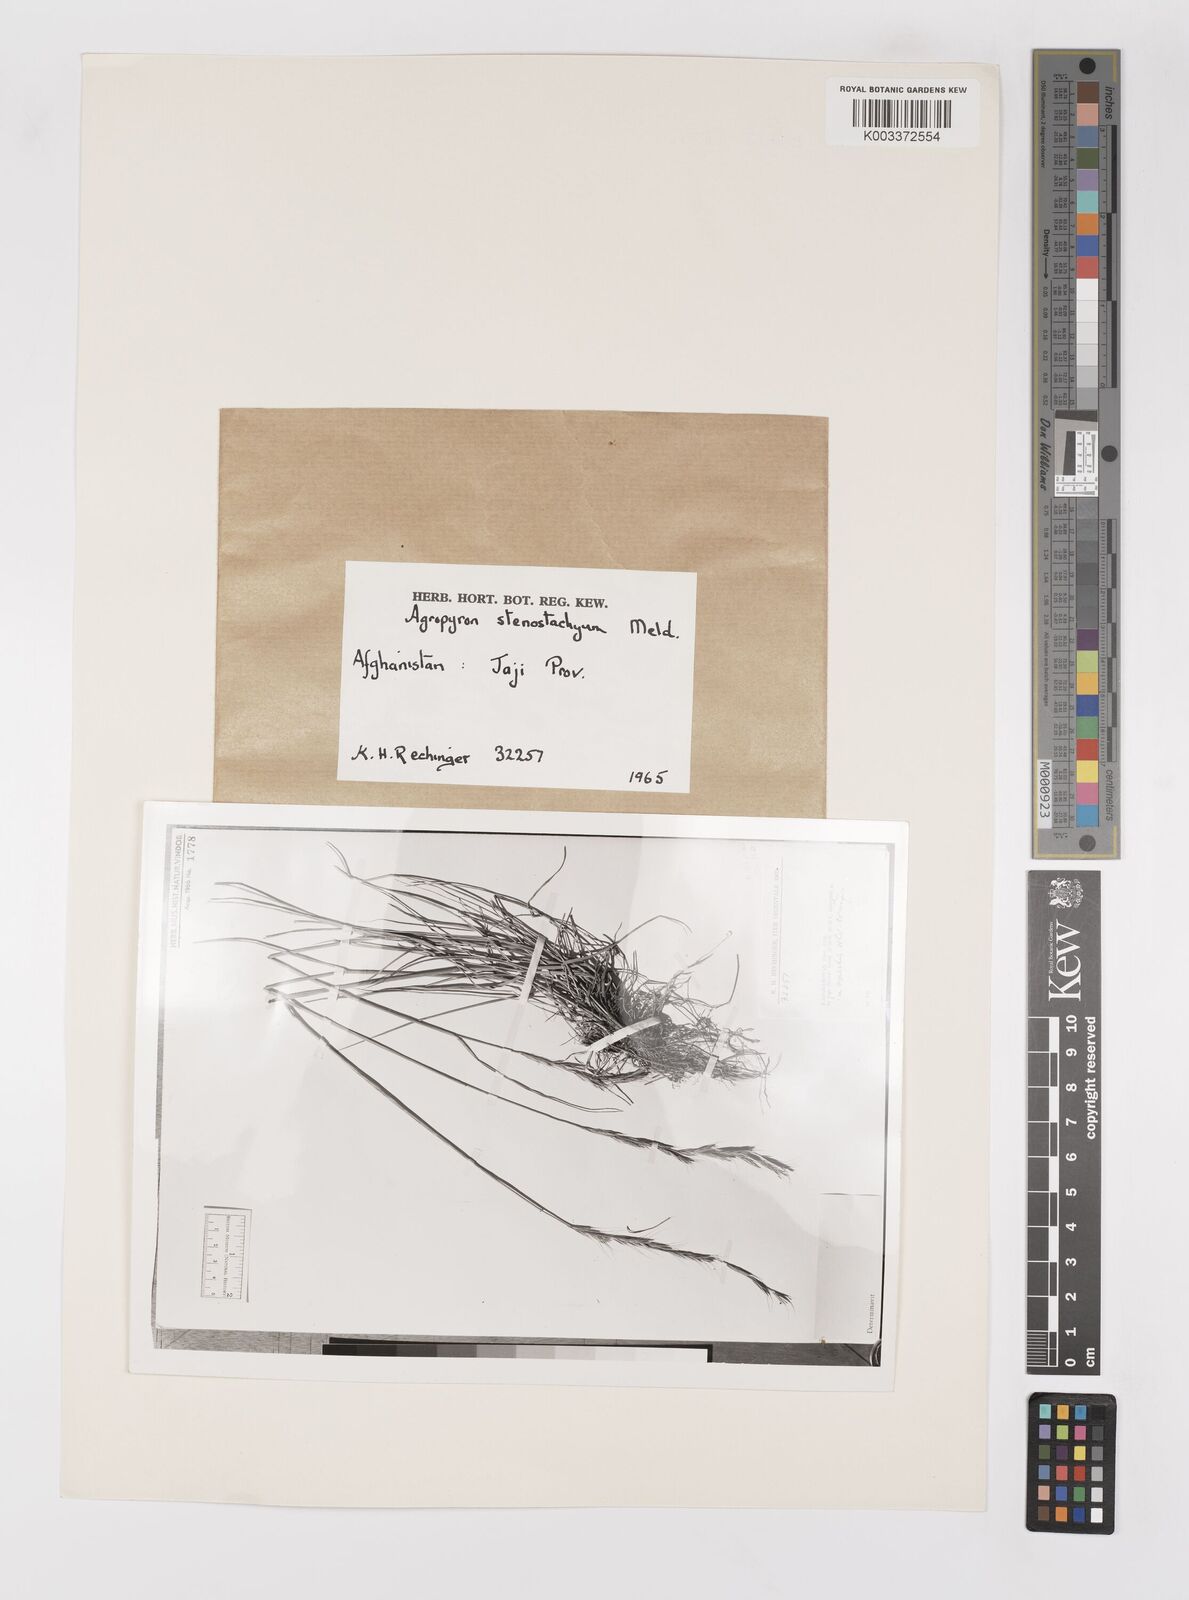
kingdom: Plantae
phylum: Tracheophyta
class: Liliopsida
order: Poales
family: Poaceae
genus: Elymus
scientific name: Elymus stenostachyus
